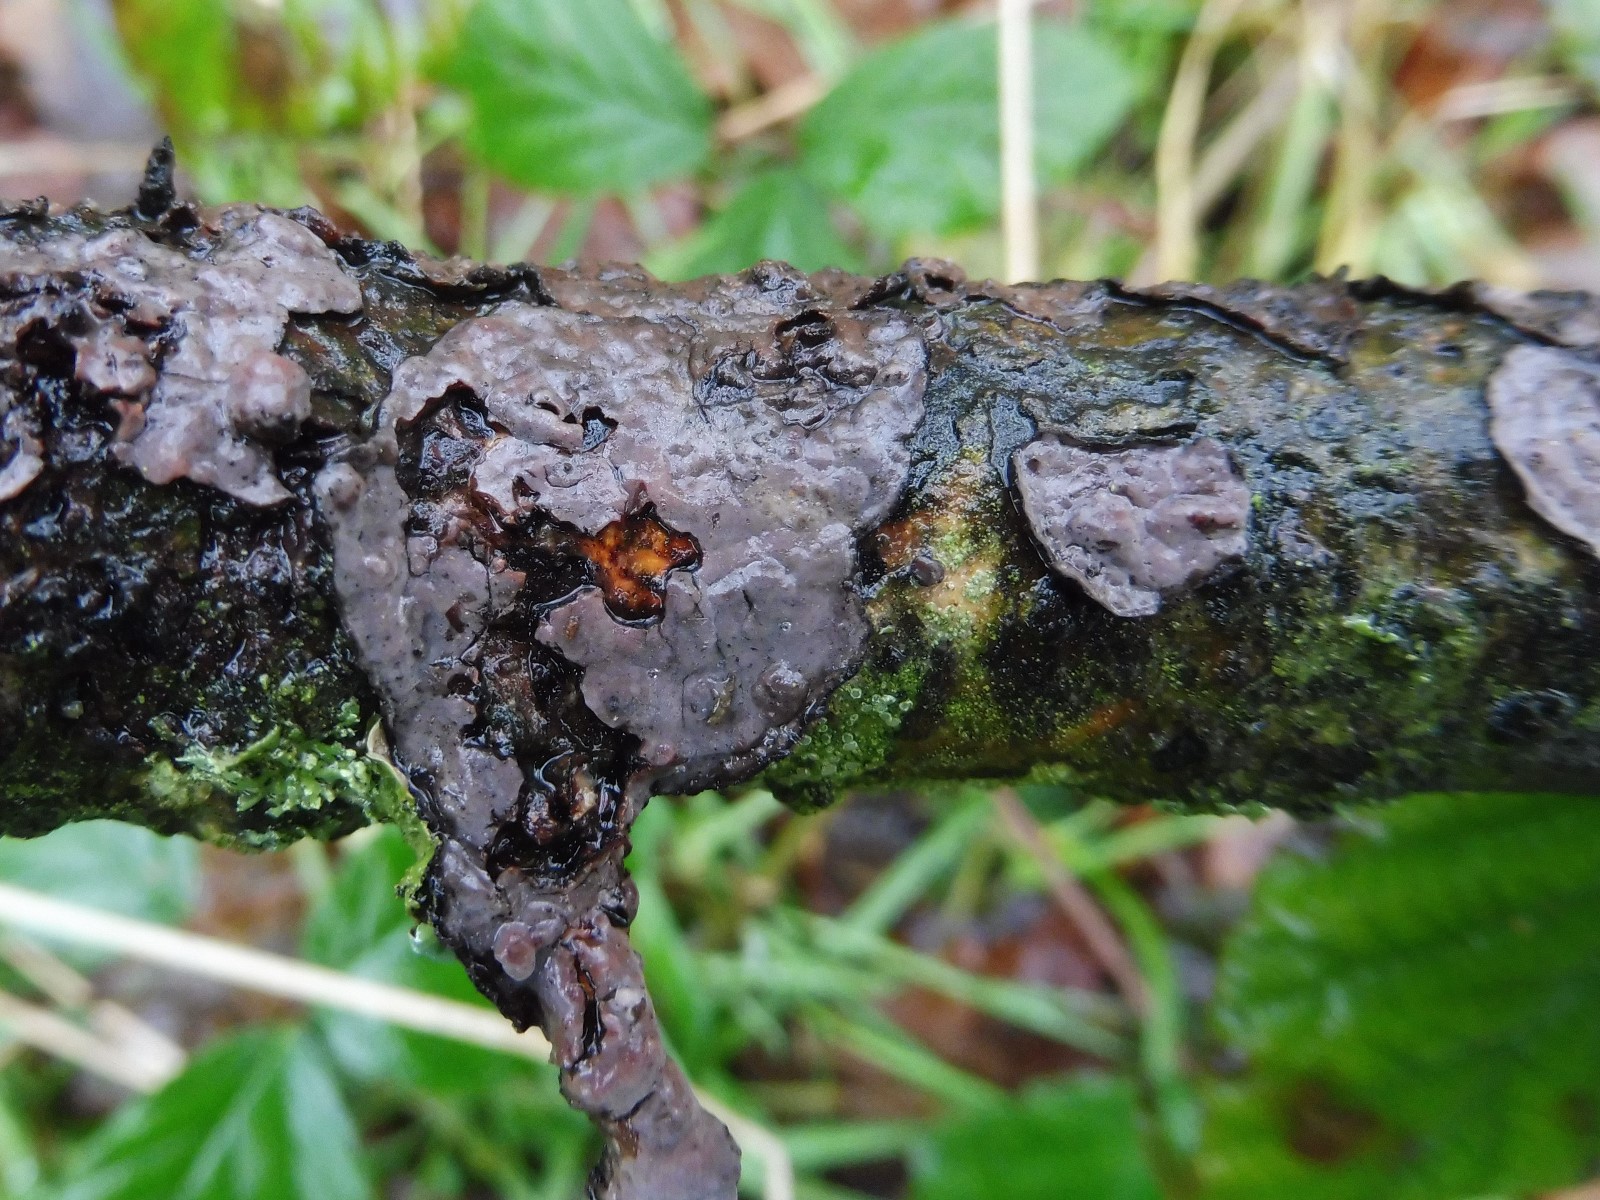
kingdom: Fungi
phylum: Basidiomycota
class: Agaricomycetes
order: Russulales
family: Peniophoraceae
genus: Peniophora
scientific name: Peniophora quercina
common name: ege-voksskind
